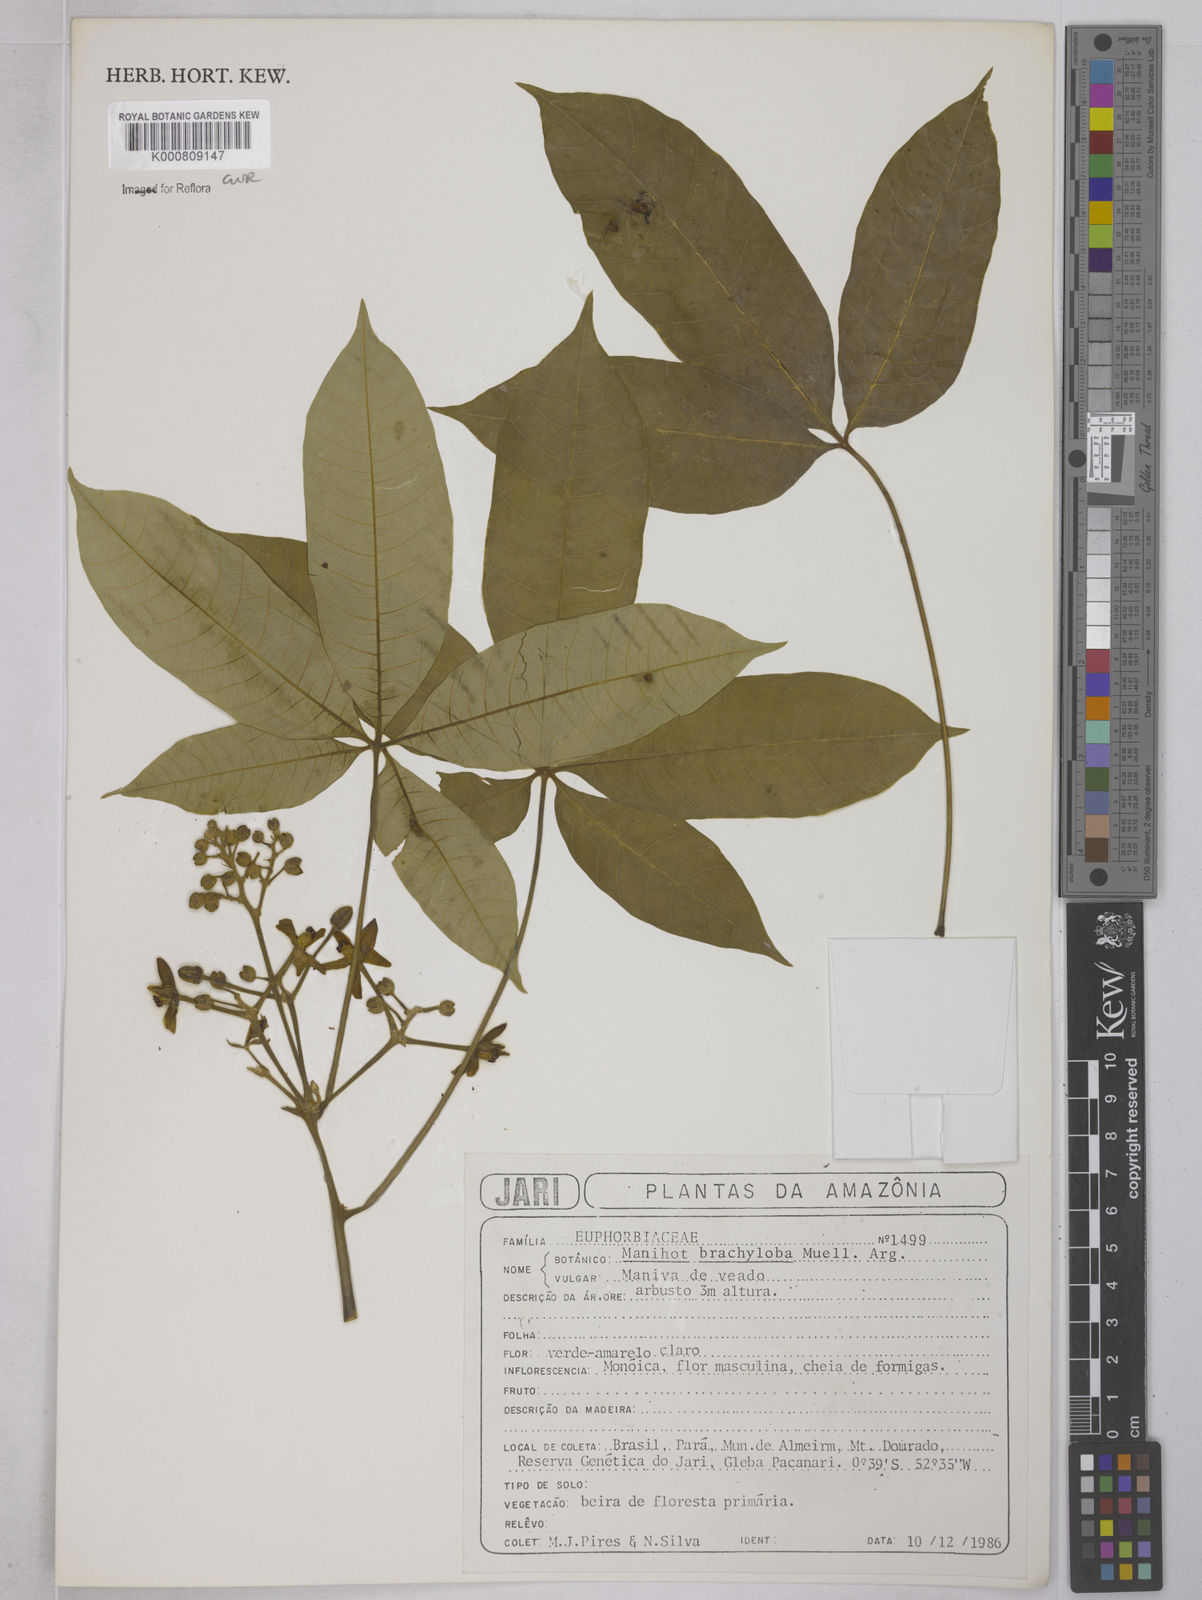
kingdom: Plantae
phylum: Tracheophyta
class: Magnoliopsida
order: Malpighiales
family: Euphorbiaceae
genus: Manihot
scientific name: Manihot brachyloba
